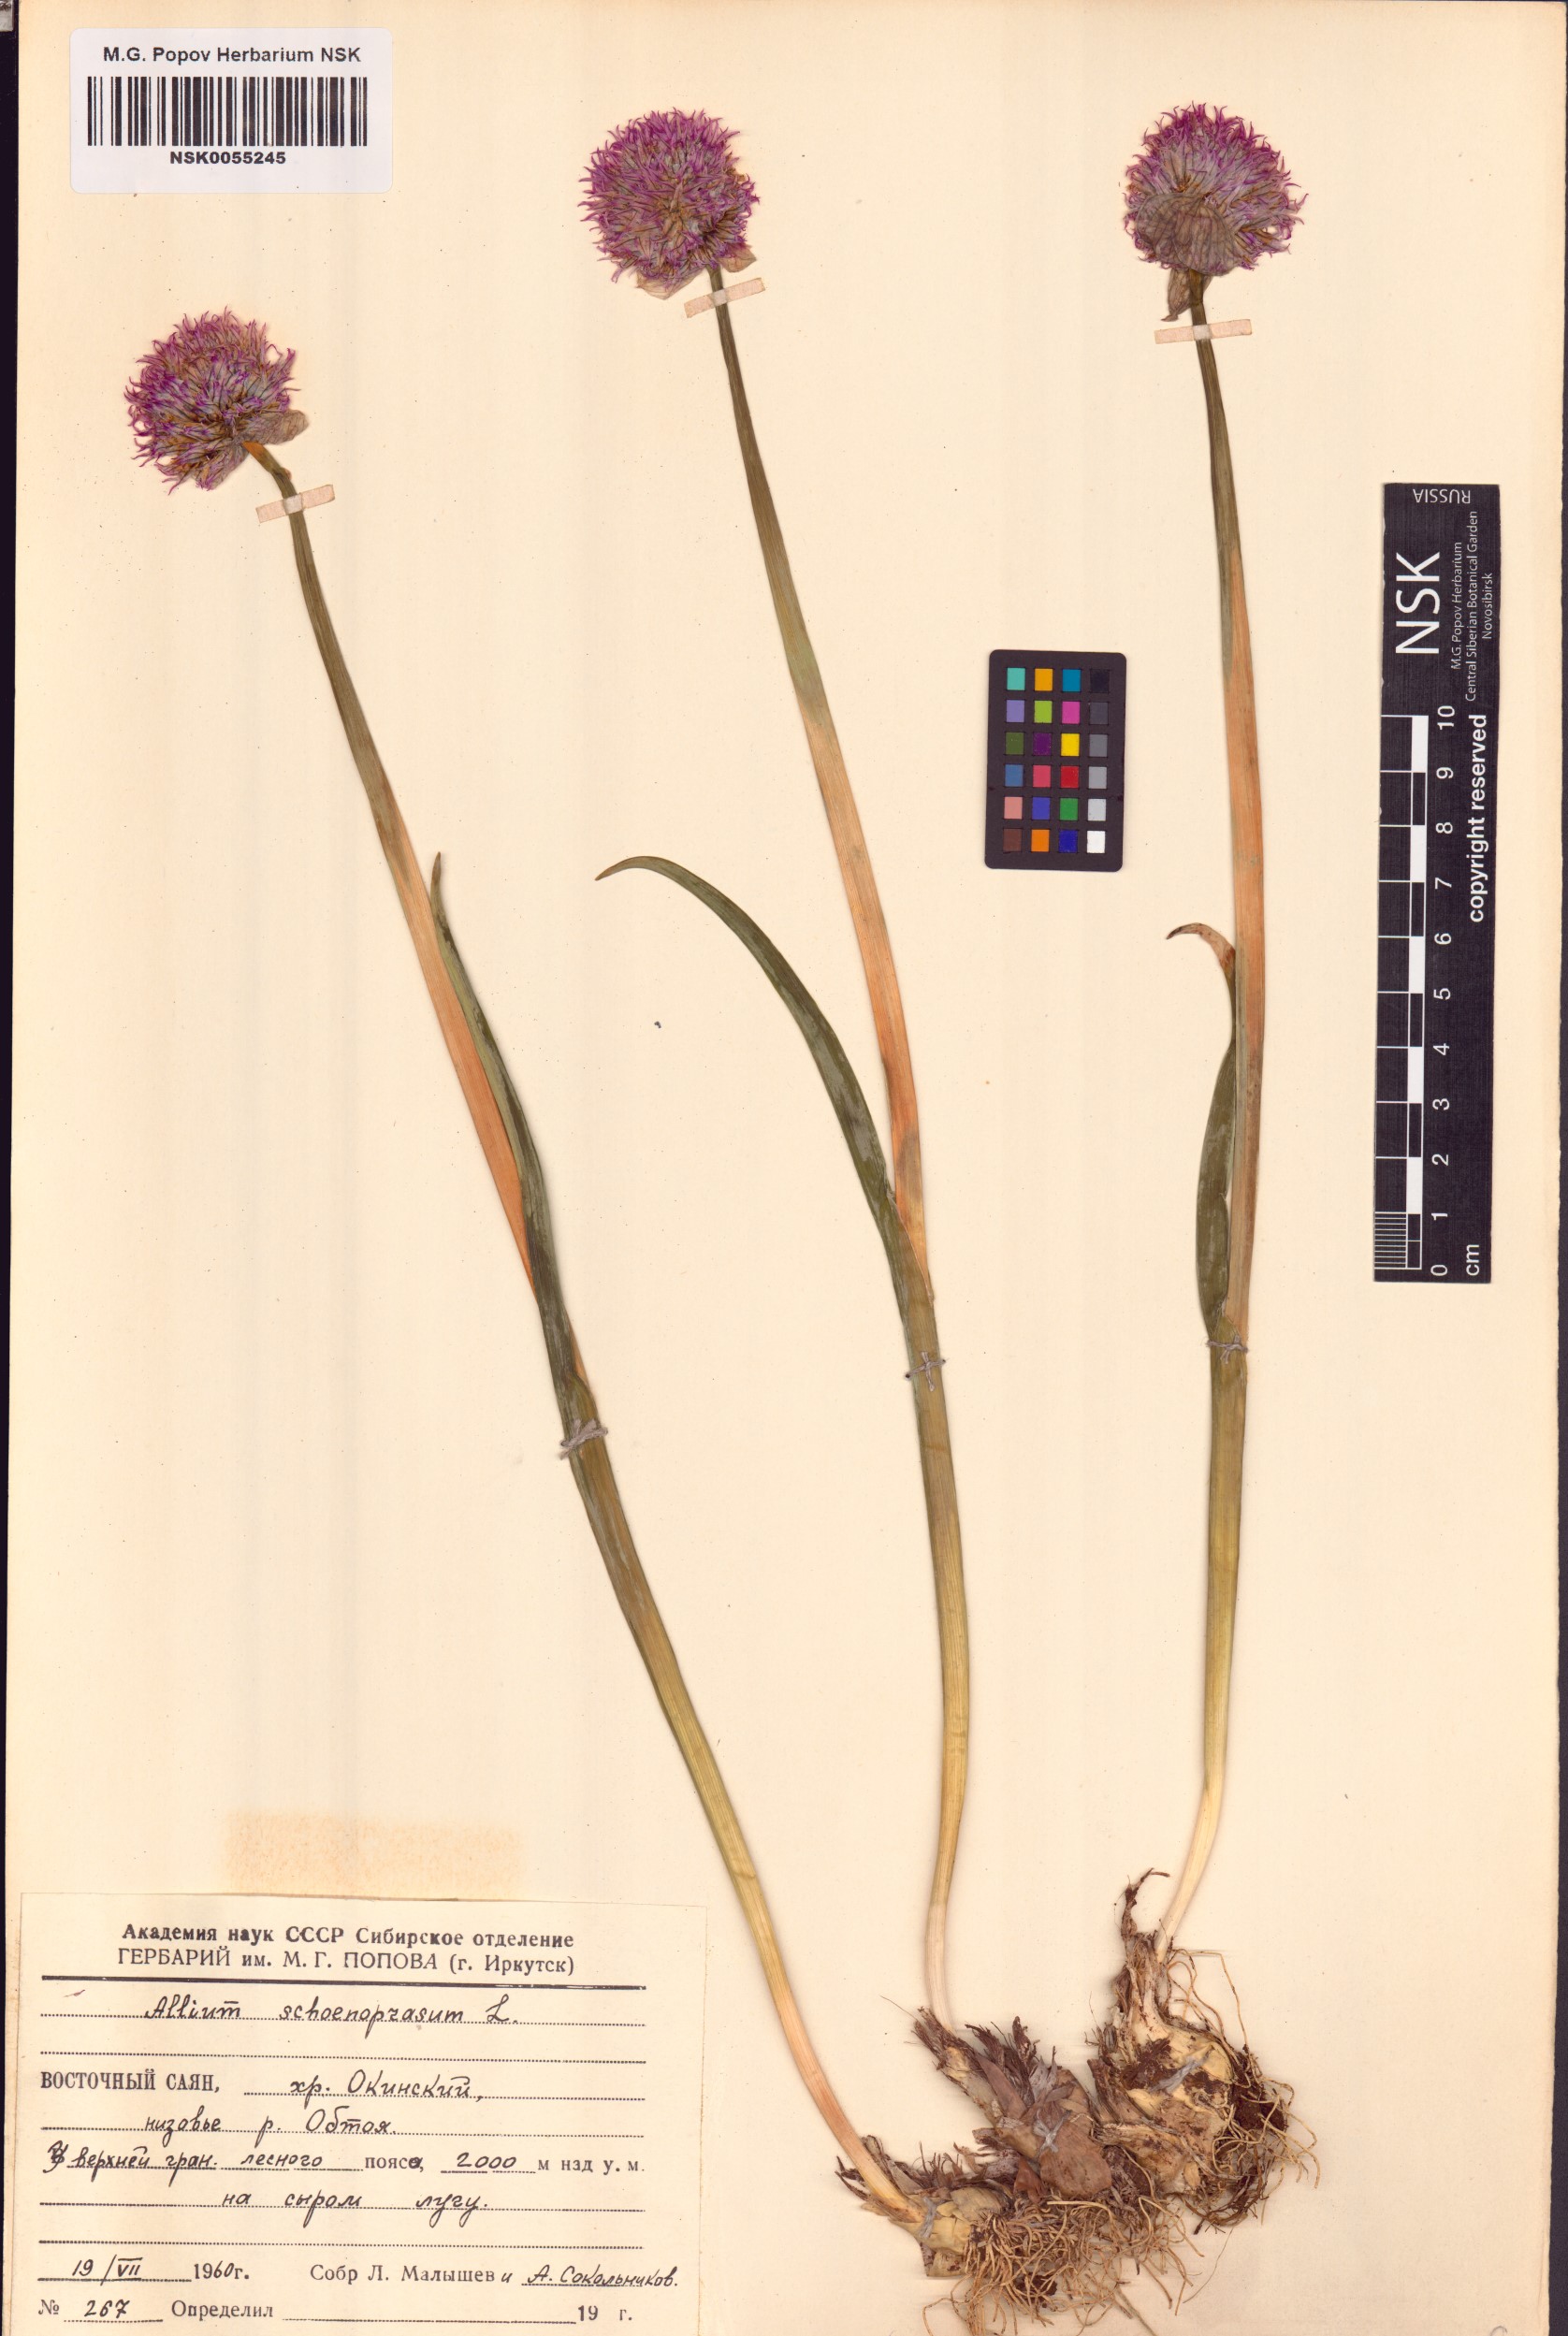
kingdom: Plantae
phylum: Tracheophyta
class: Liliopsida
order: Asparagales
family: Amaryllidaceae
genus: Allium
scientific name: Allium schoenoprasoides
